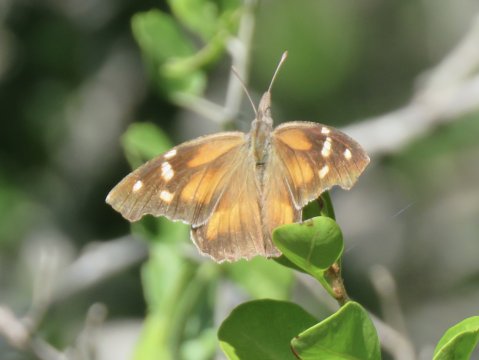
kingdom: Animalia
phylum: Arthropoda
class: Insecta
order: Lepidoptera
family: Nymphalidae
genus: Libytheana
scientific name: Libytheana carinenta
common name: American Snout
